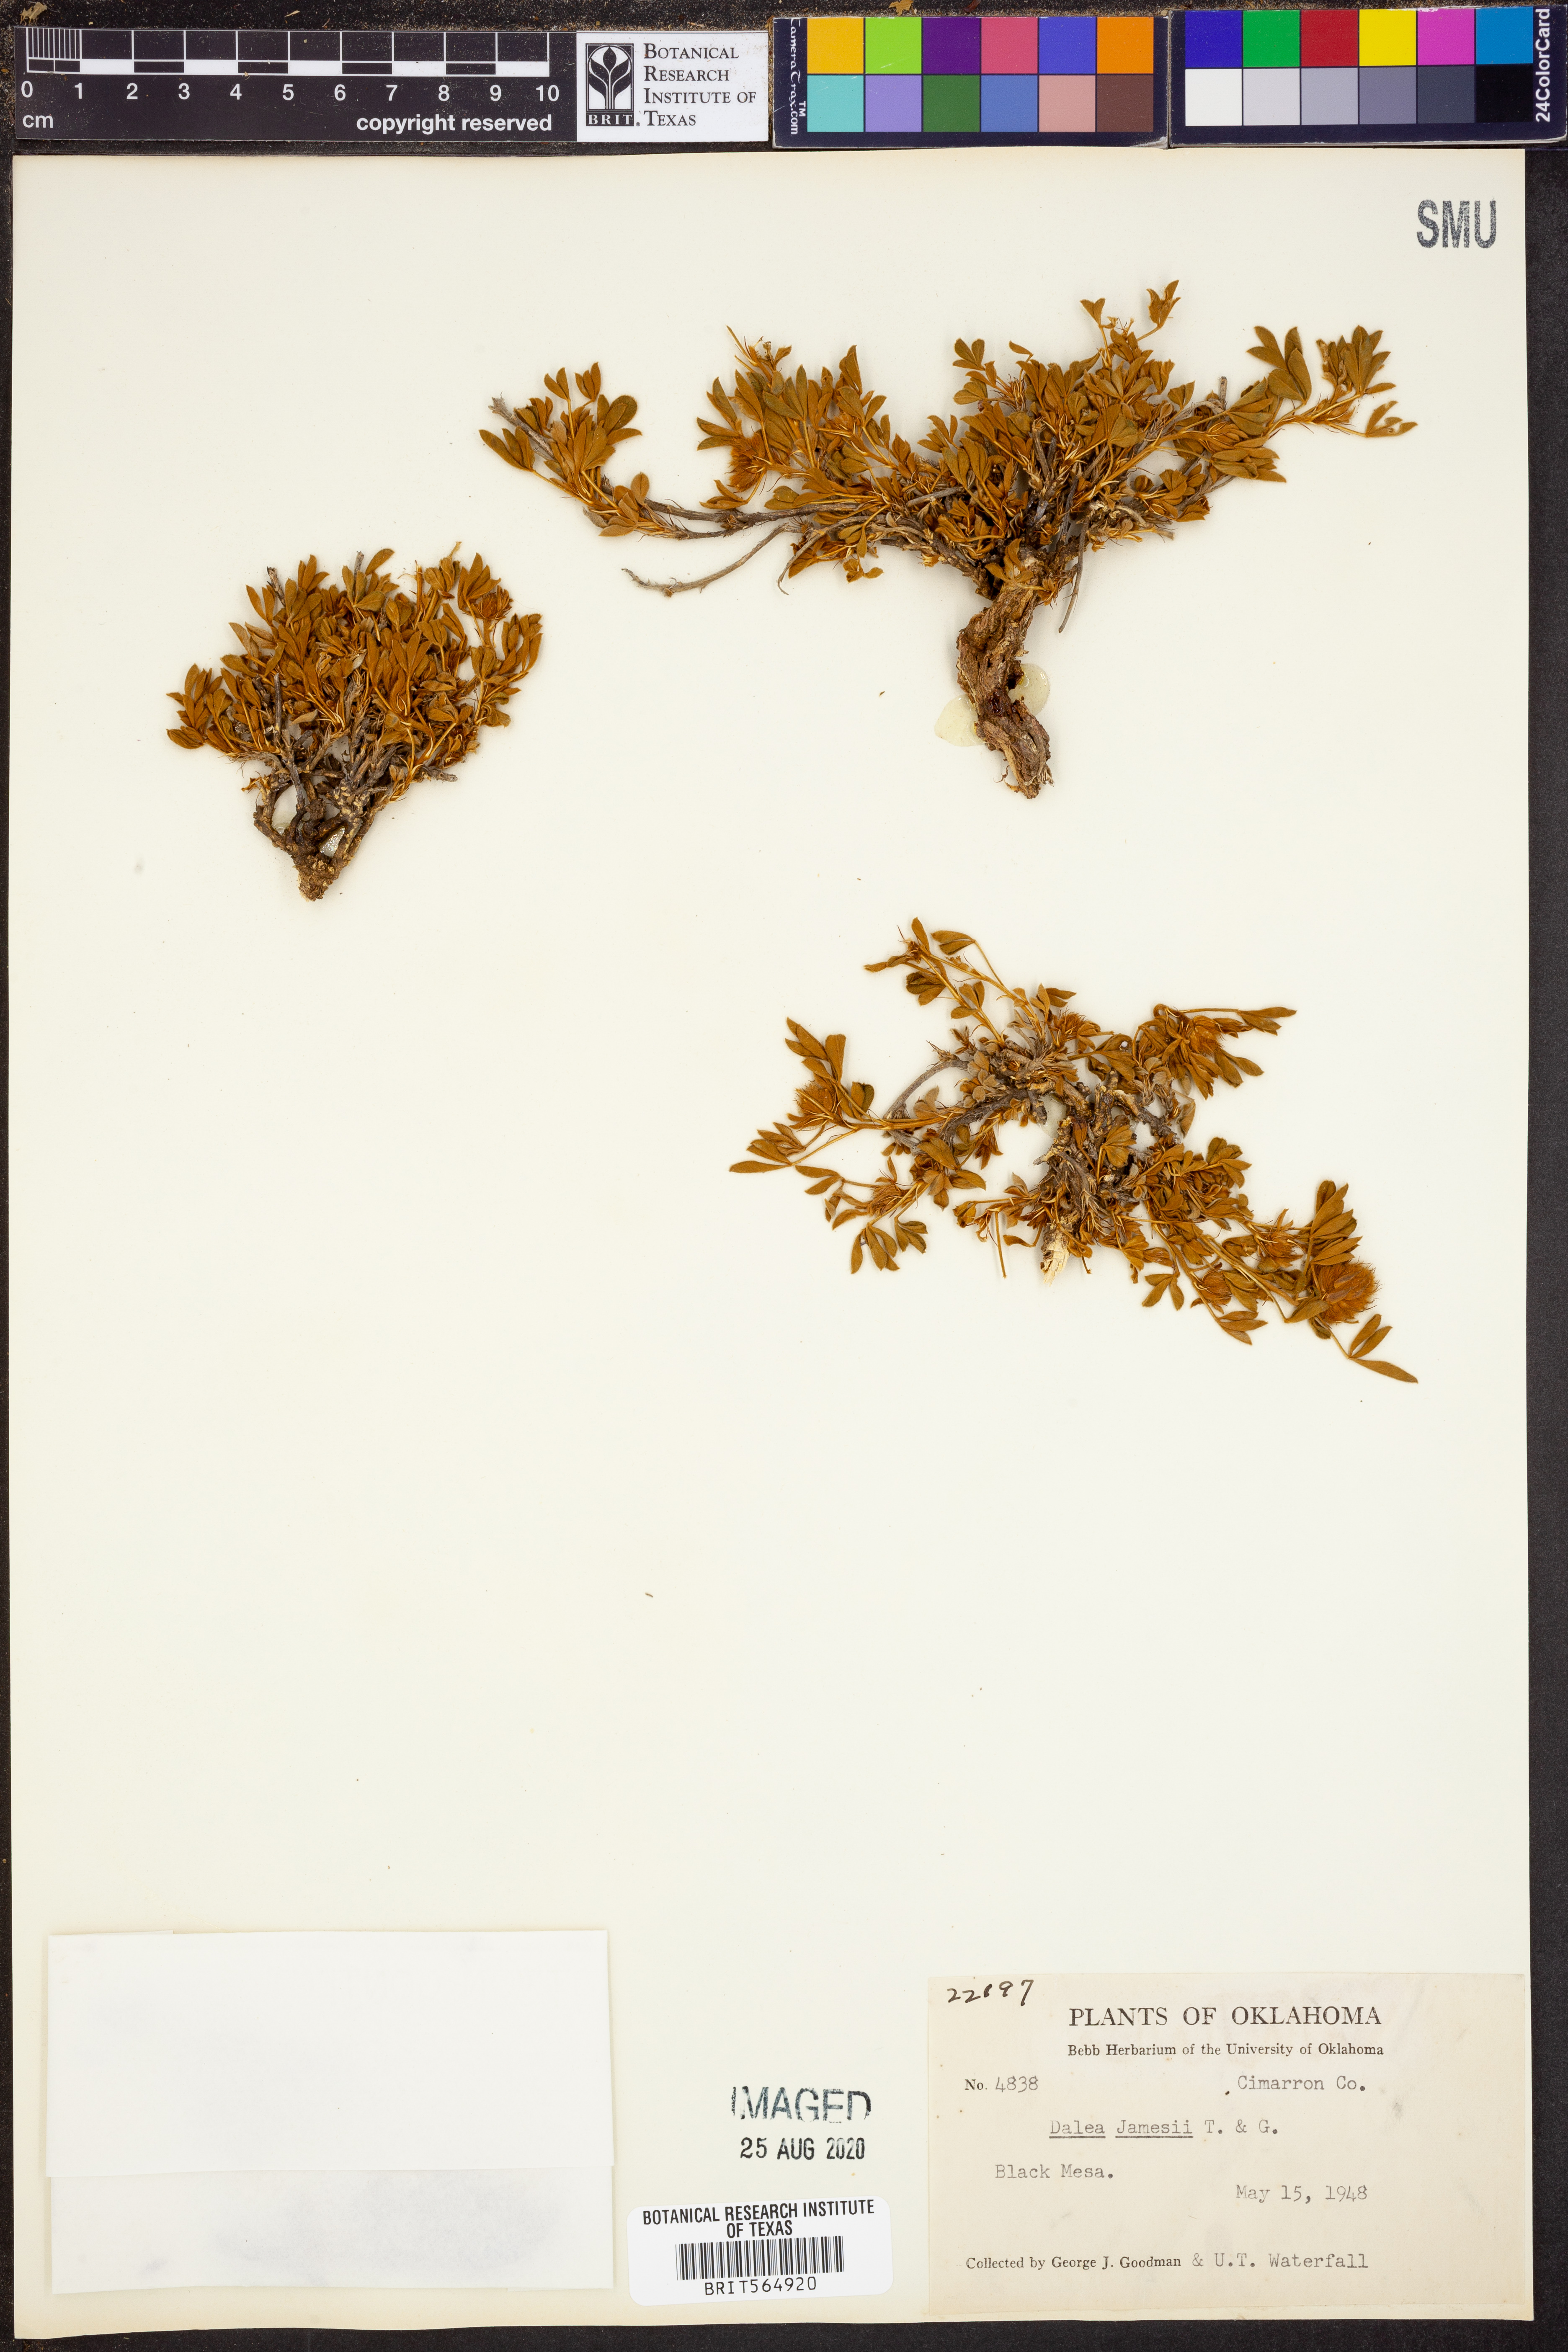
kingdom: Plantae
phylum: Tracheophyta
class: Magnoliopsida
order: Fabales
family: Fabaceae
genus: Dalea
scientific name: Dalea jamesii
